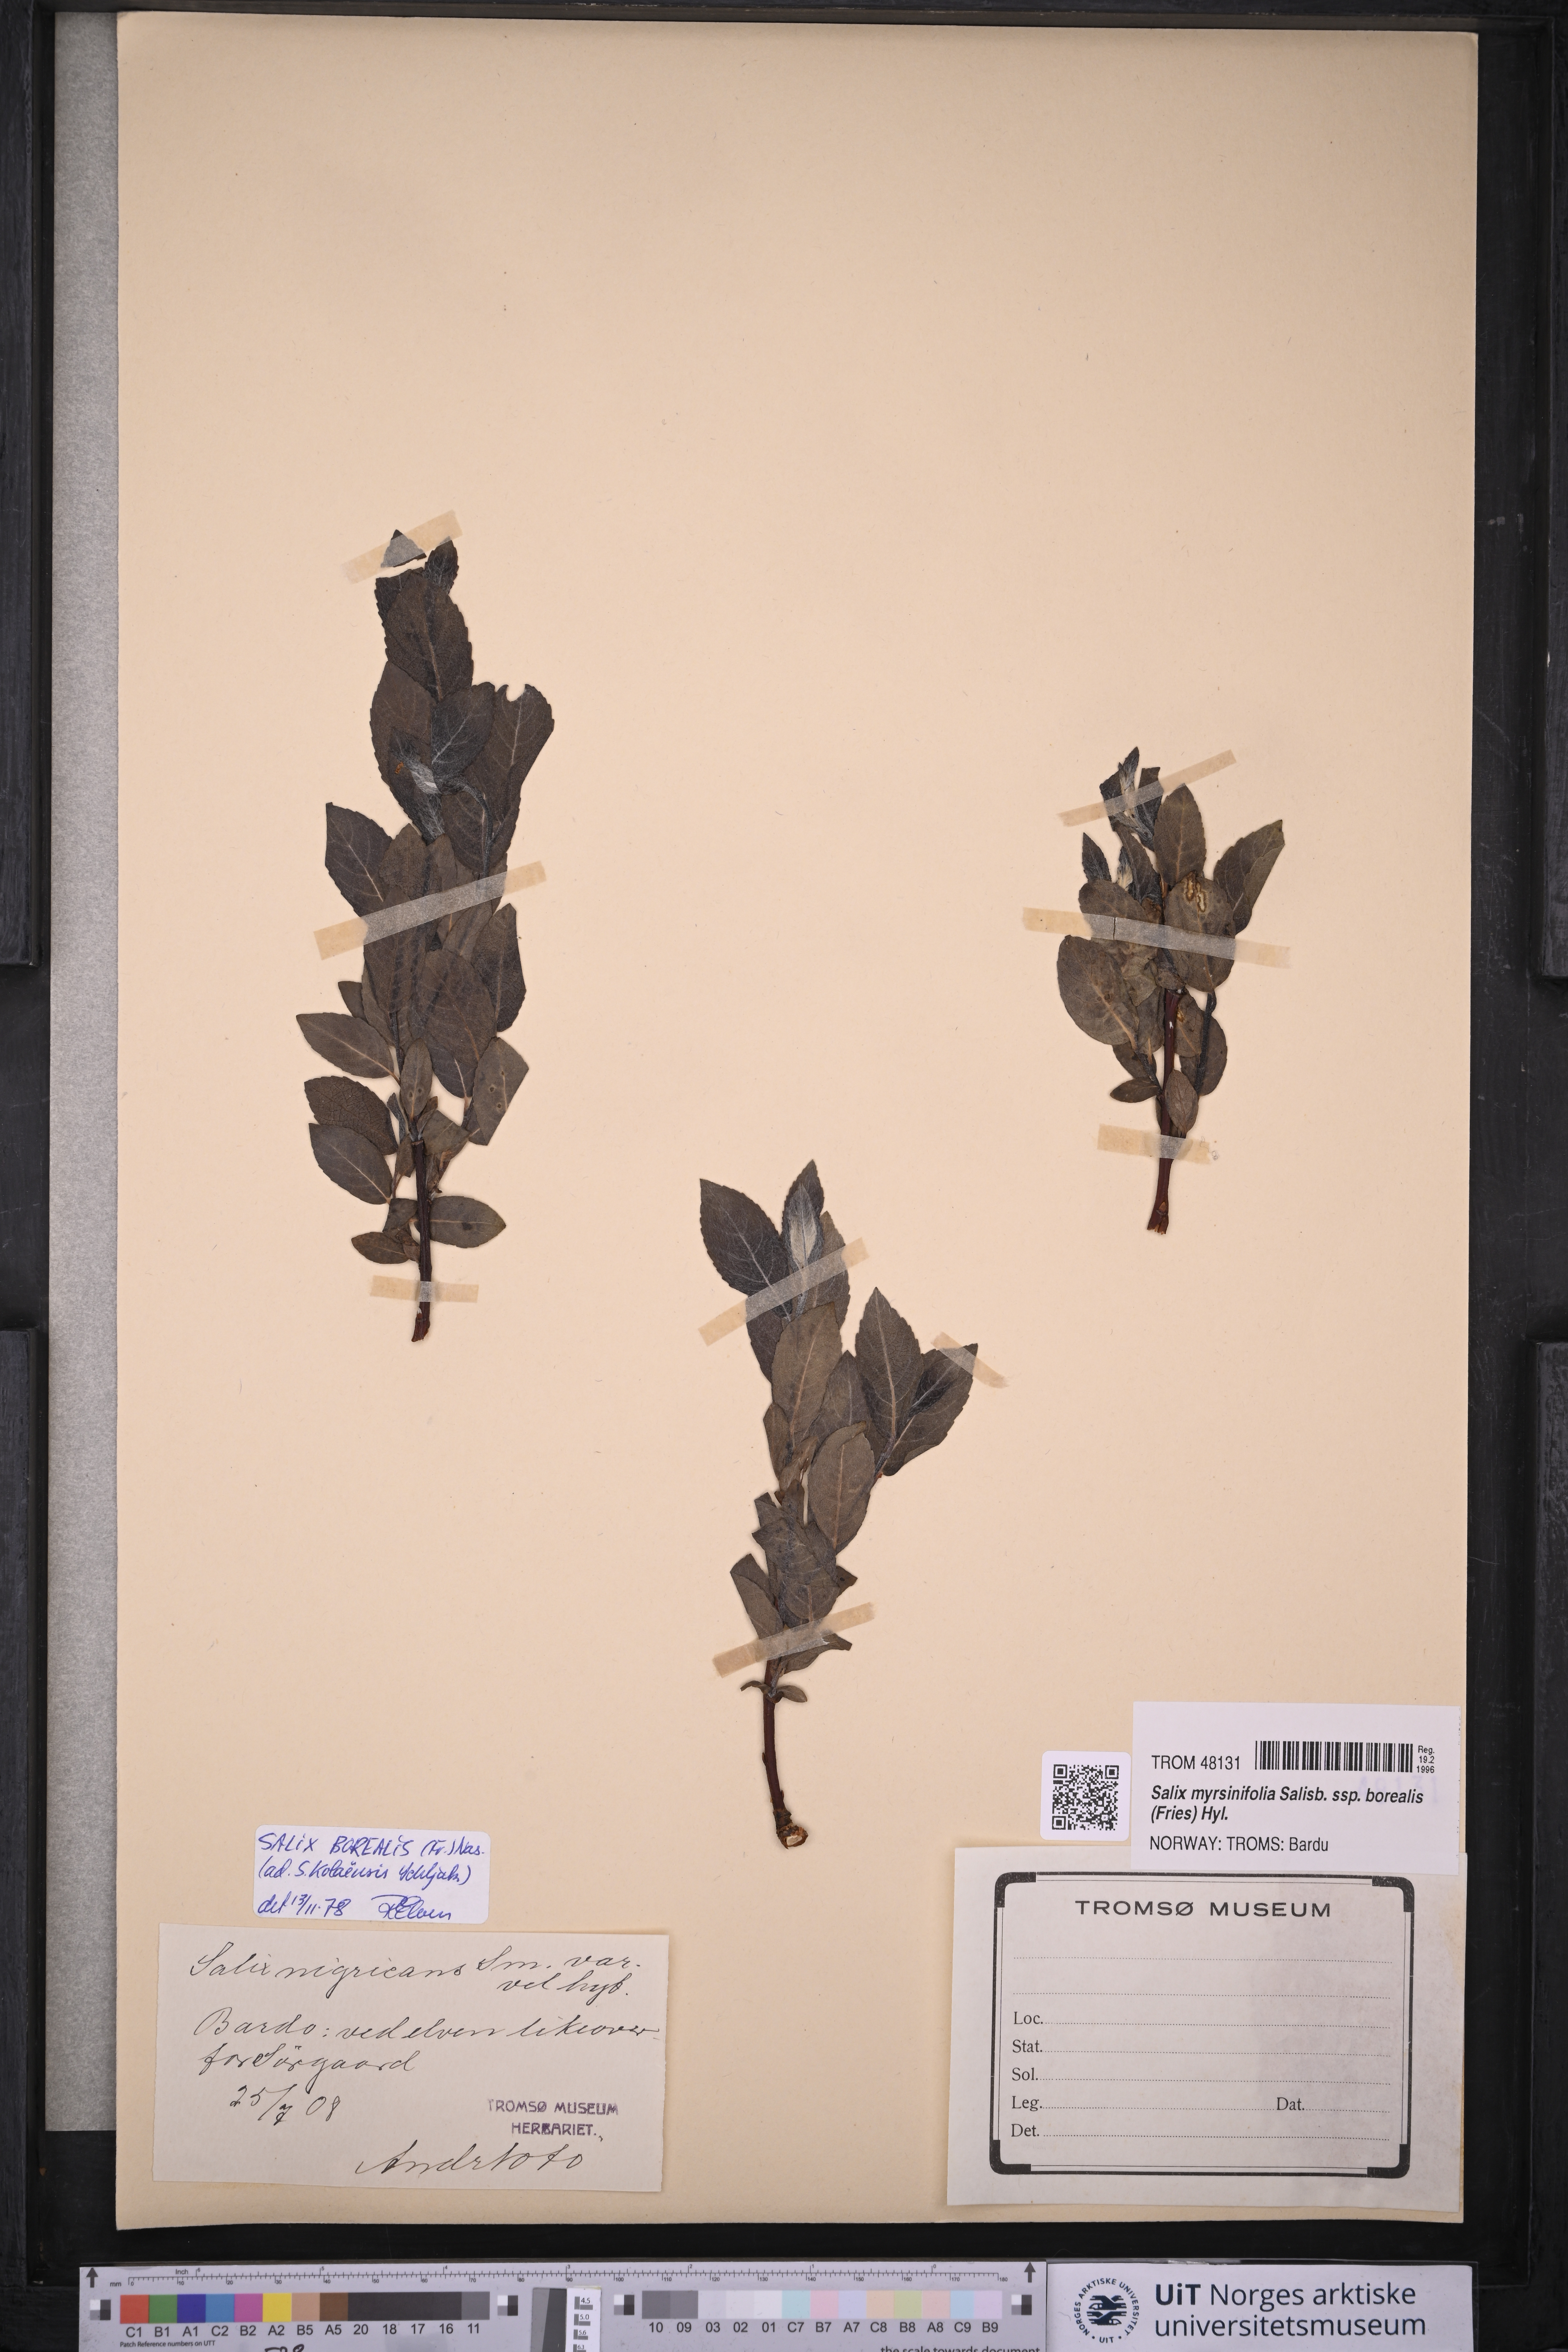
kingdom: Plantae
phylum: Tracheophyta
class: Magnoliopsida
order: Malpighiales
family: Salicaceae
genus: Salix
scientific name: Salix myrsinifolia
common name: Dark-leaved willow
